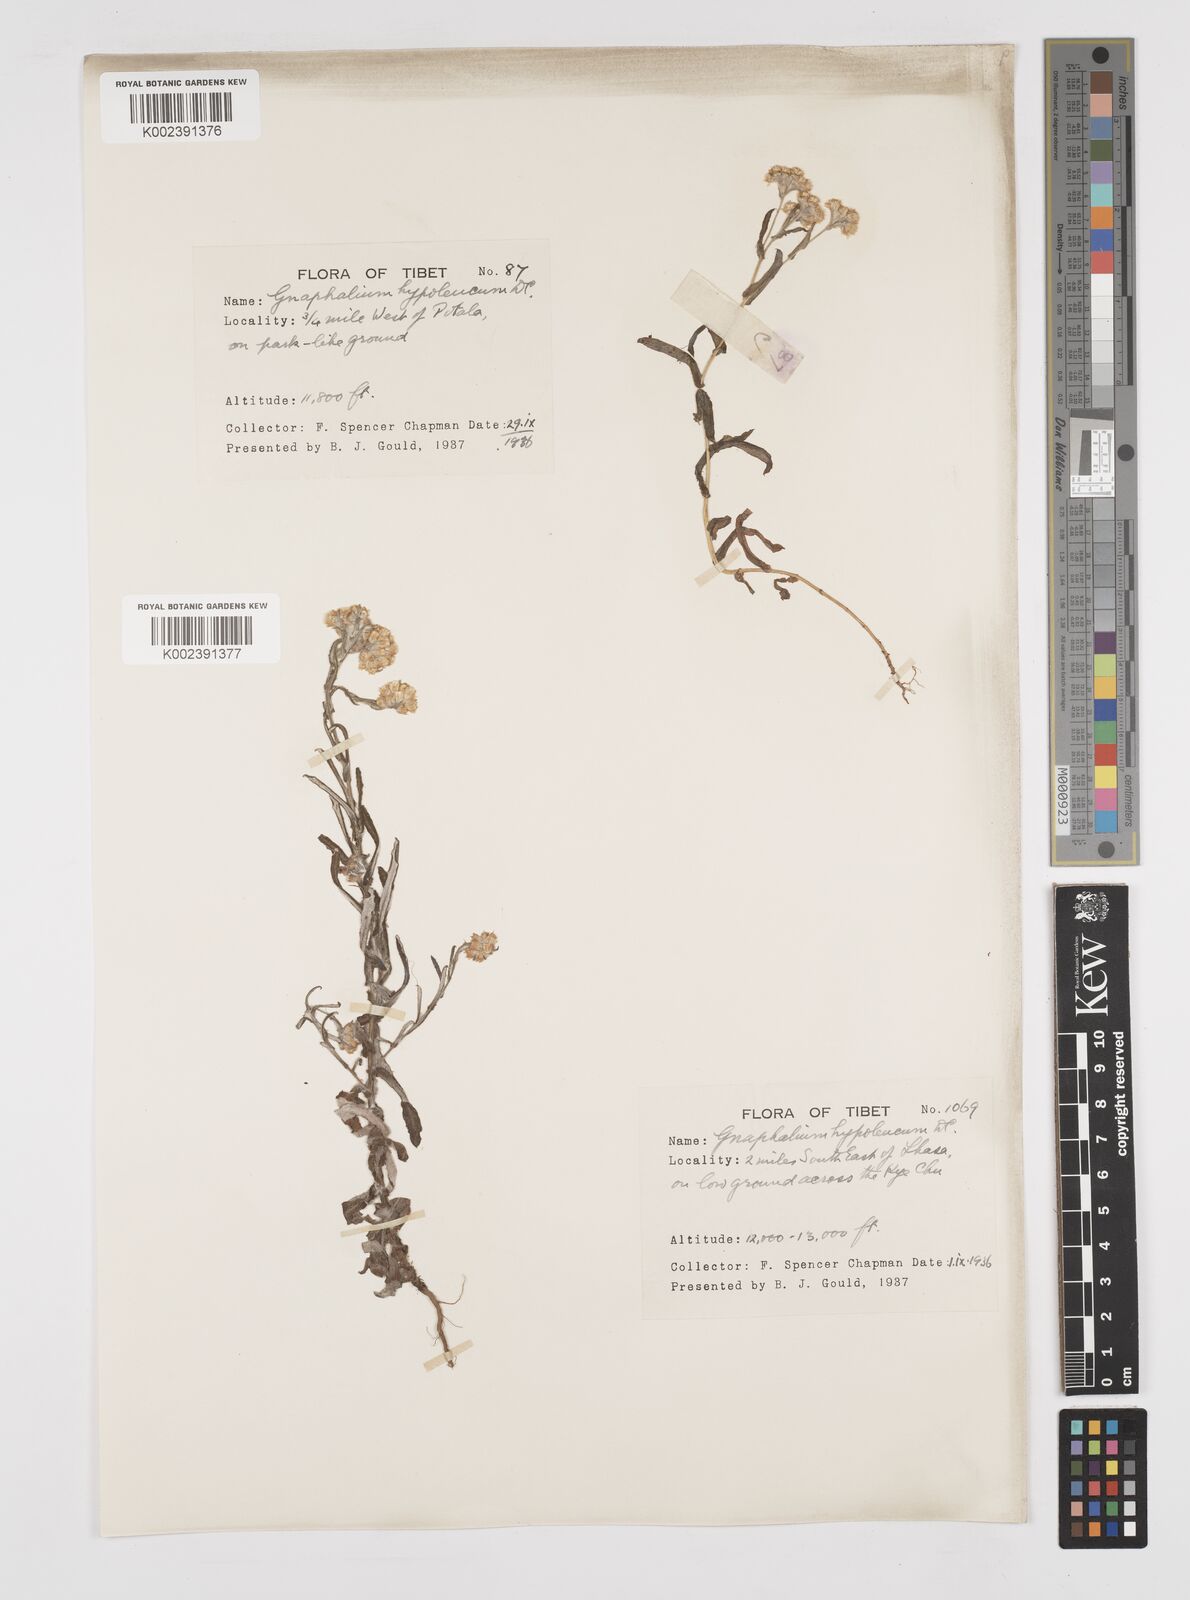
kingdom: Plantae
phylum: Tracheophyta
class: Magnoliopsida
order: Asterales
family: Asteraceae
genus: Pseudognaphalium
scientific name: Pseudognaphalium hypoleucum
